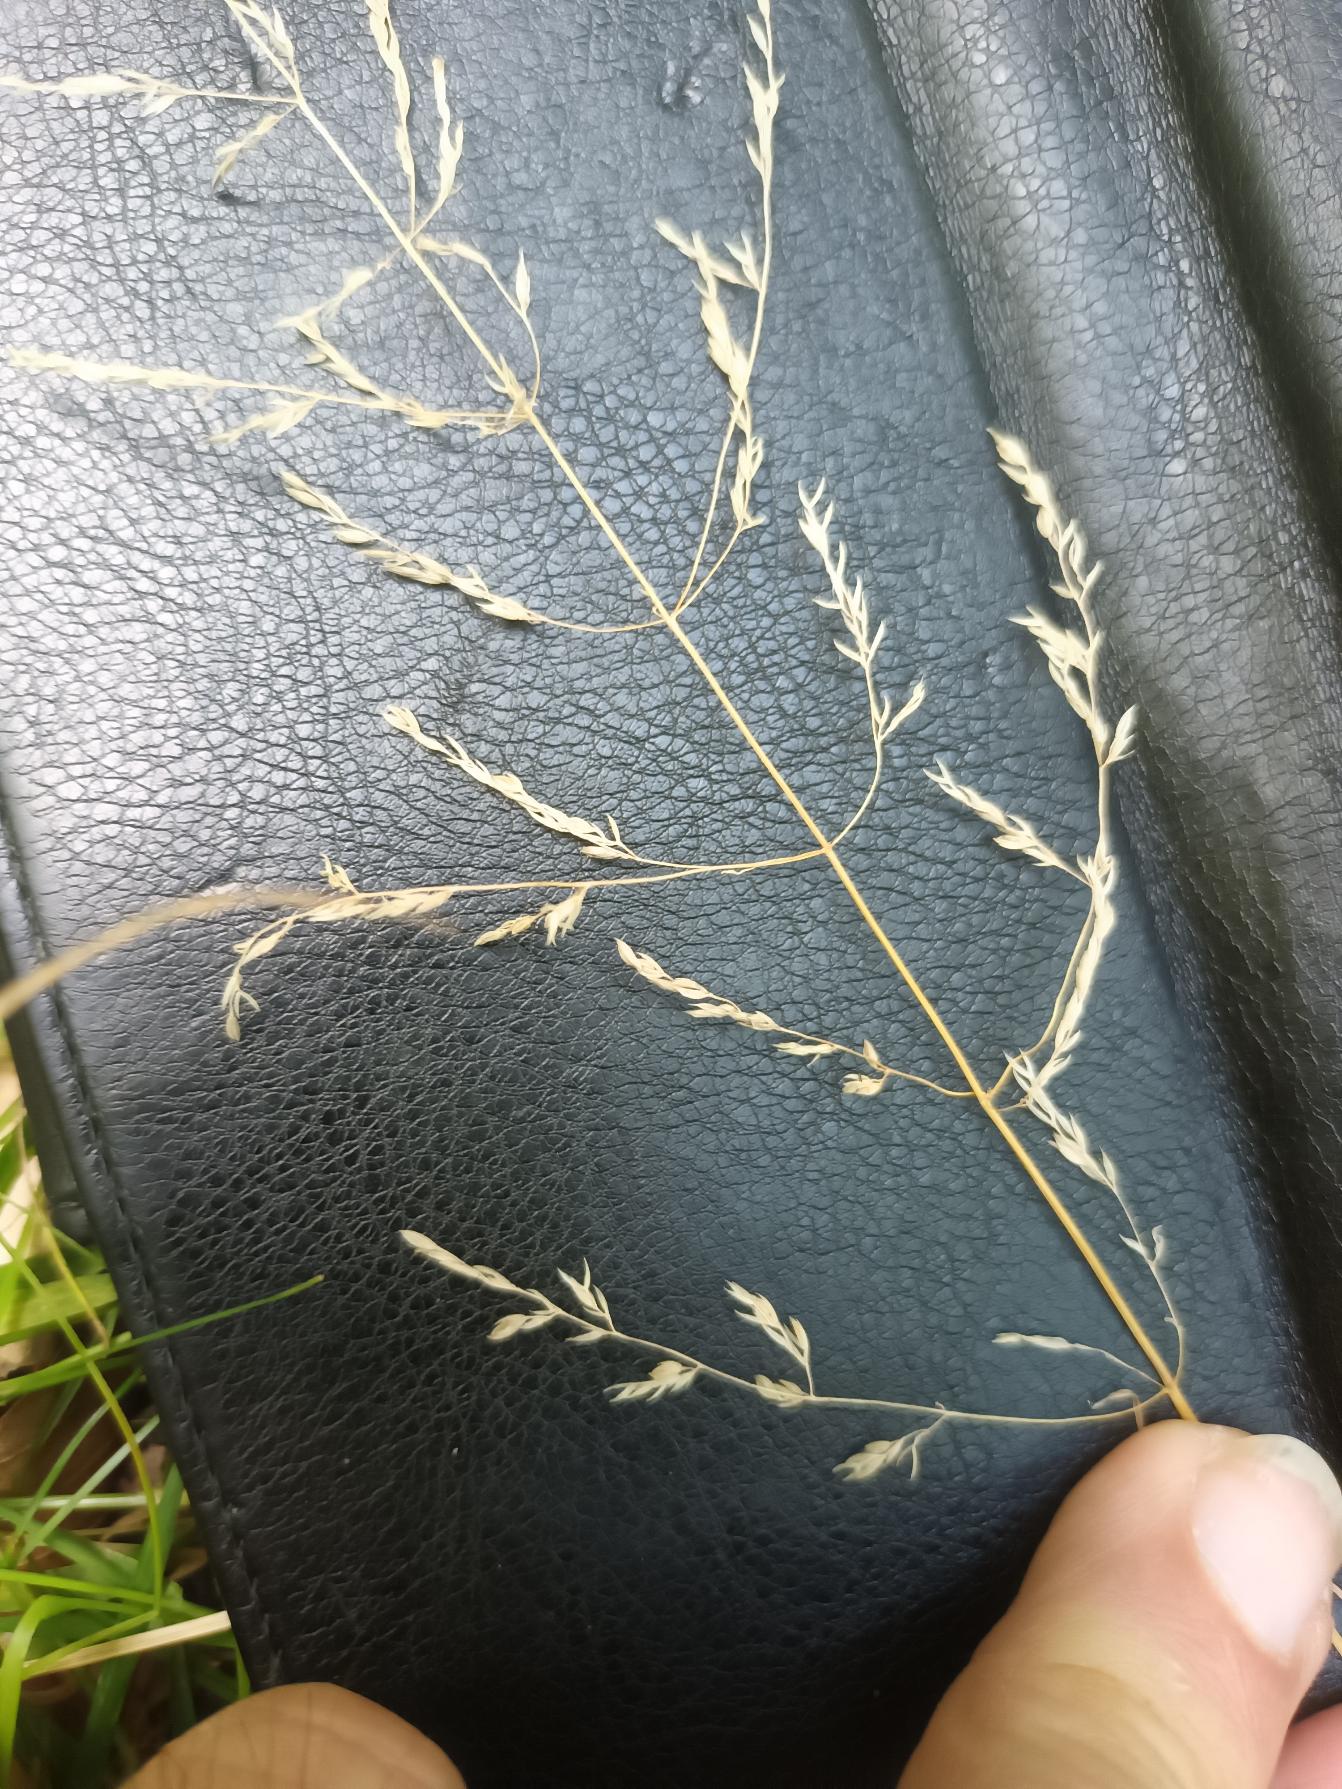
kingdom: Plantae
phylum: Tracheophyta
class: Liliopsida
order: Poales
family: Poaceae
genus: Poa
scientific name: Poa trivialis
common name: Almindelig rapgræs
